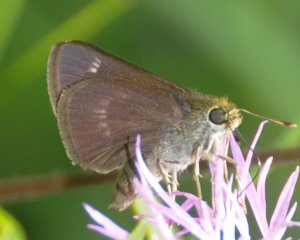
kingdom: Animalia
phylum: Arthropoda
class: Insecta
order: Lepidoptera
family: Hesperiidae
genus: Polites
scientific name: Polites egeremet
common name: Northern Broken-Dash
